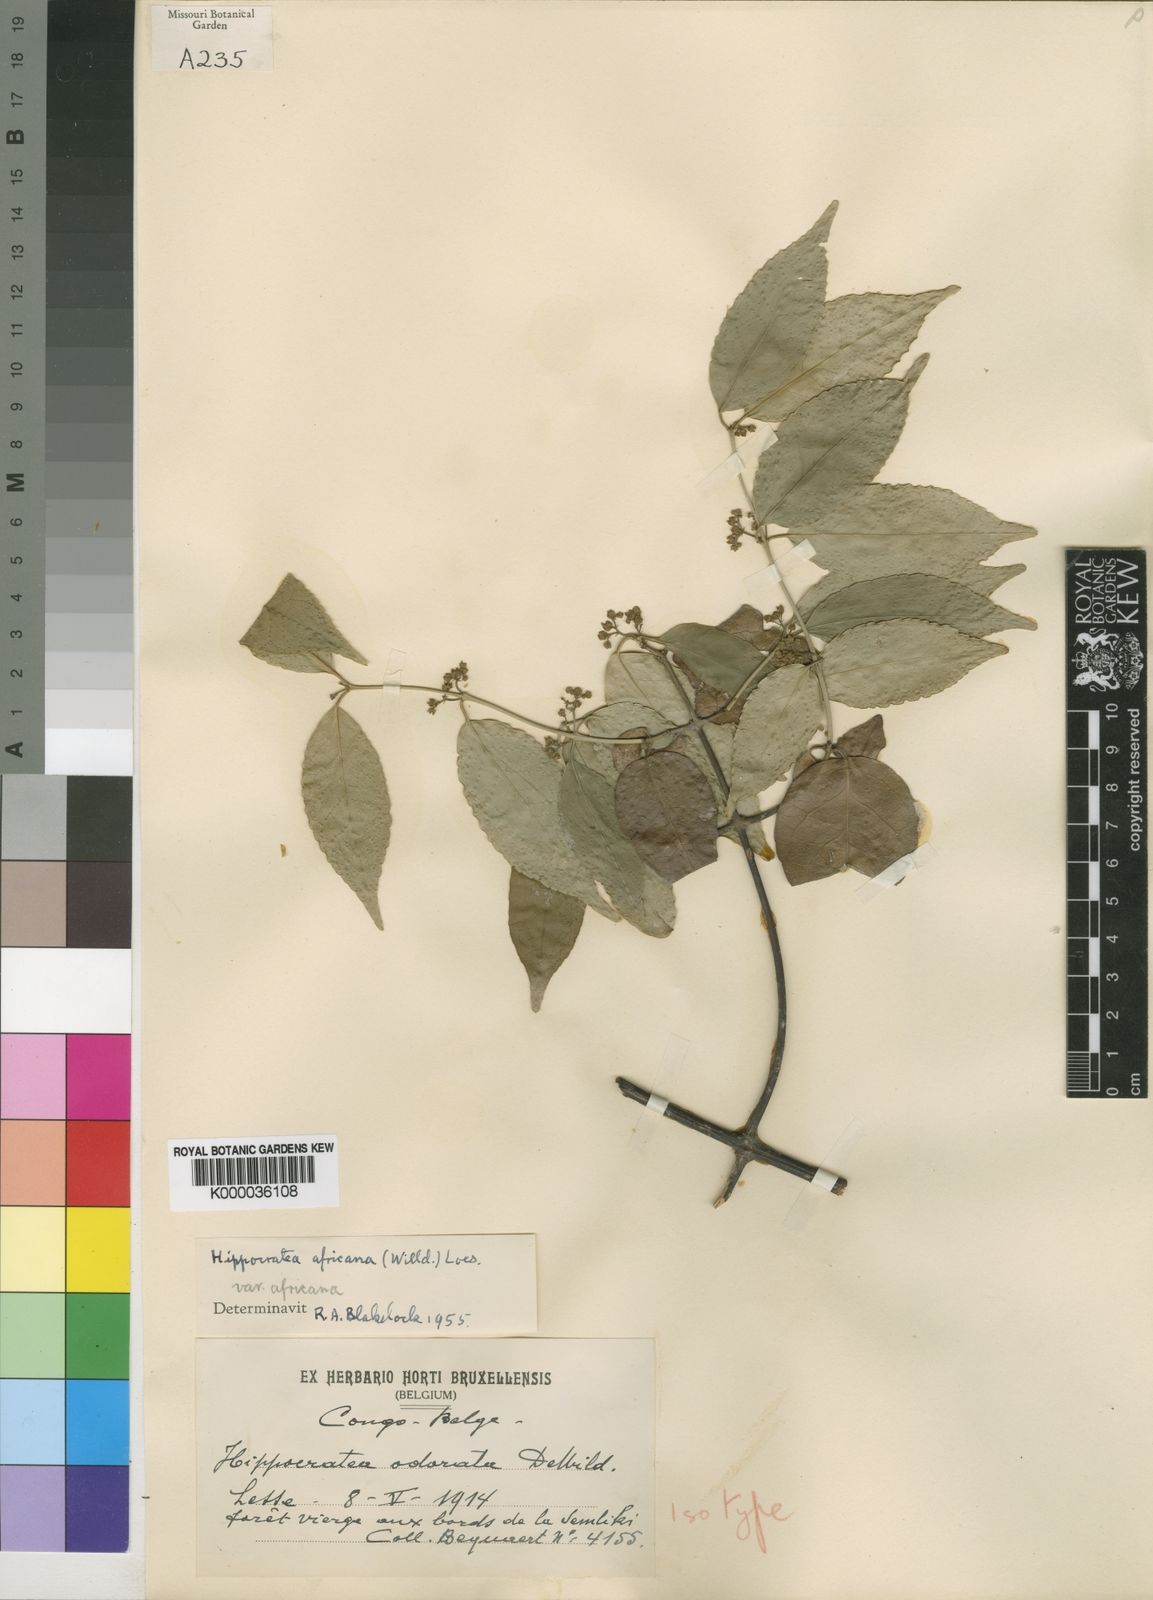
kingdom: Plantae
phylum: Tracheophyta
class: Magnoliopsida
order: Celastrales
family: Celastraceae
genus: Loeseneriella
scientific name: Loeseneriella
